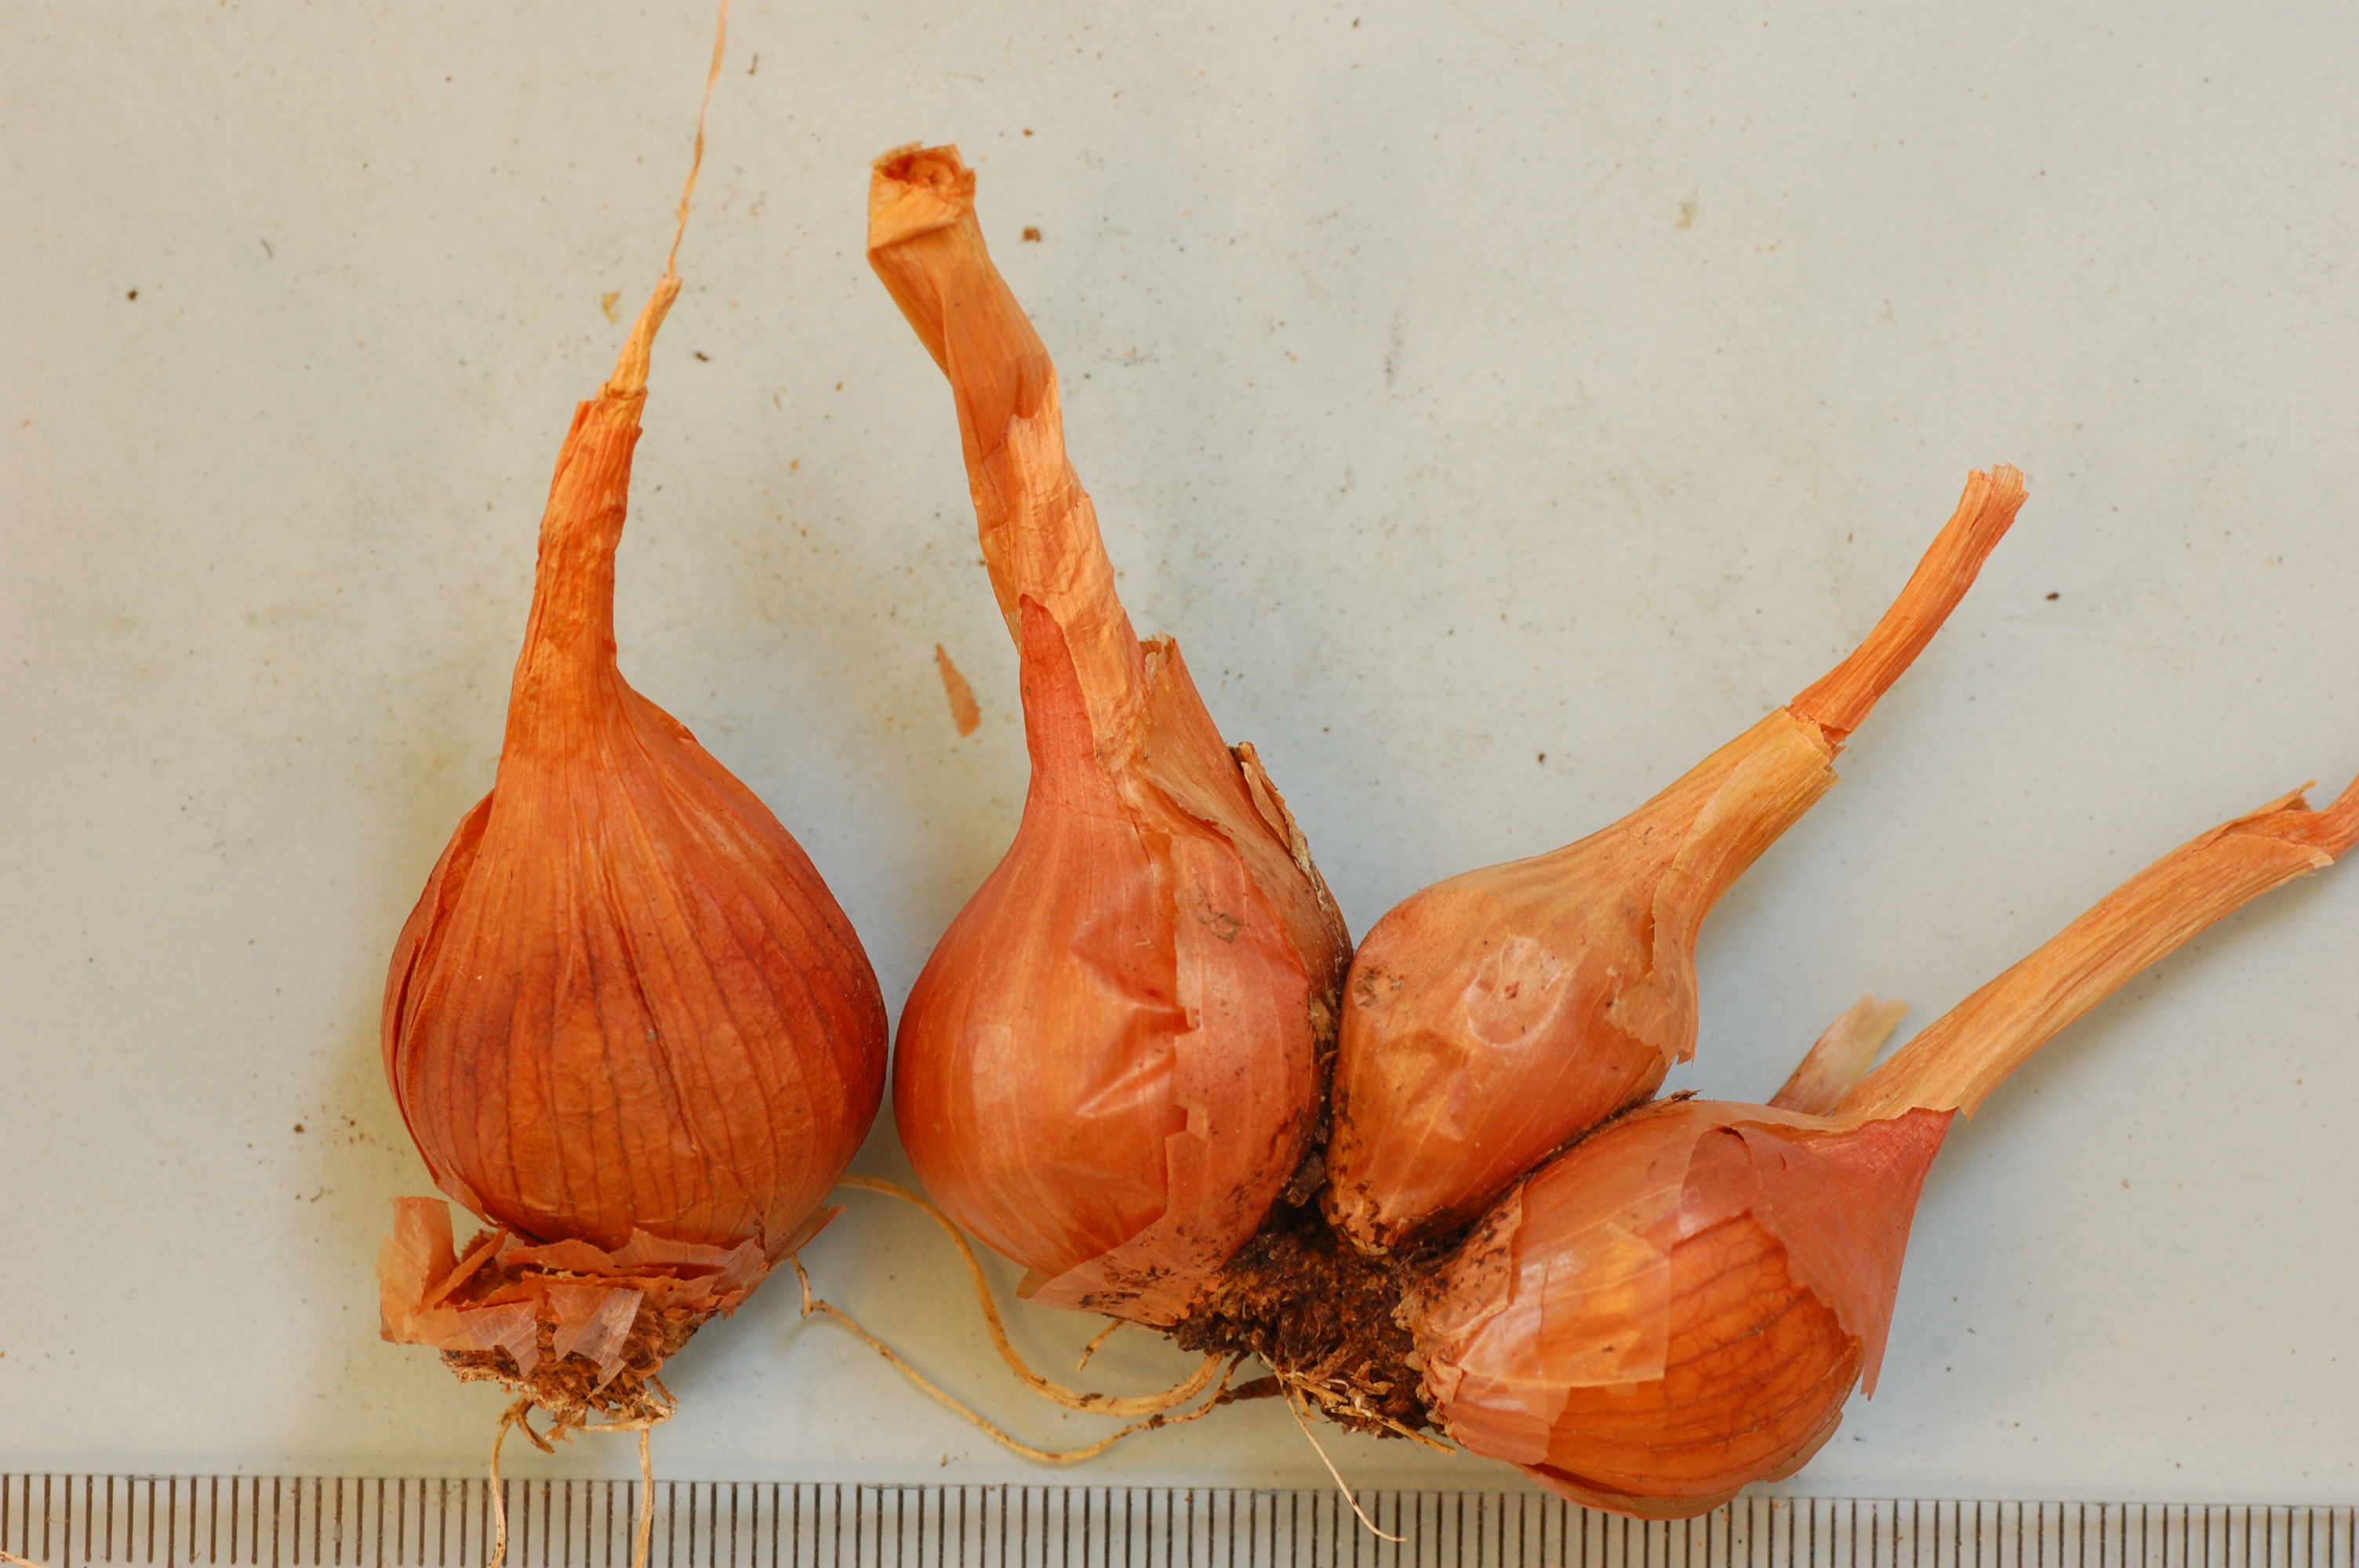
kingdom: Plantae
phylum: Tracheophyta
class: Liliopsida
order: Asparagales
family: Amaryllidaceae
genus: Allium
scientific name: Allium cepa
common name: Onion
